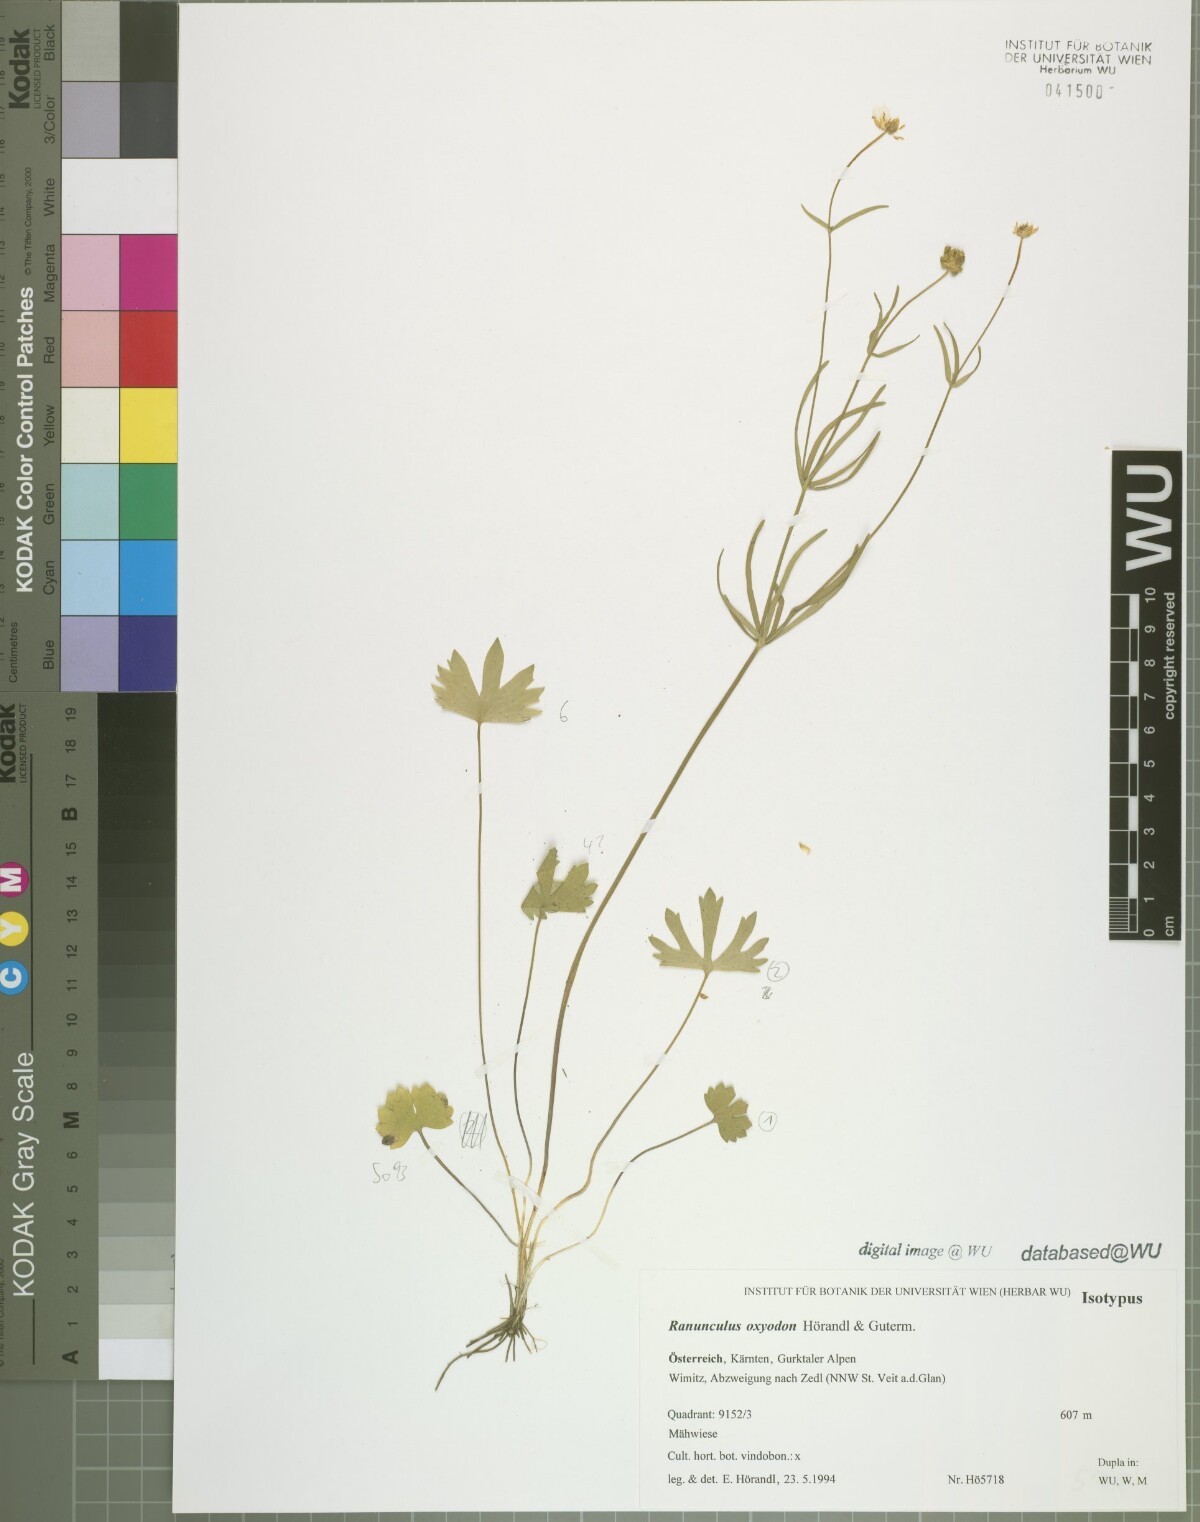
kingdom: Plantae
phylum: Tracheophyta
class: Magnoliopsida
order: Ranunculales
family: Ranunculaceae
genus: Ranunculus
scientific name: Ranunculus oxyodon
